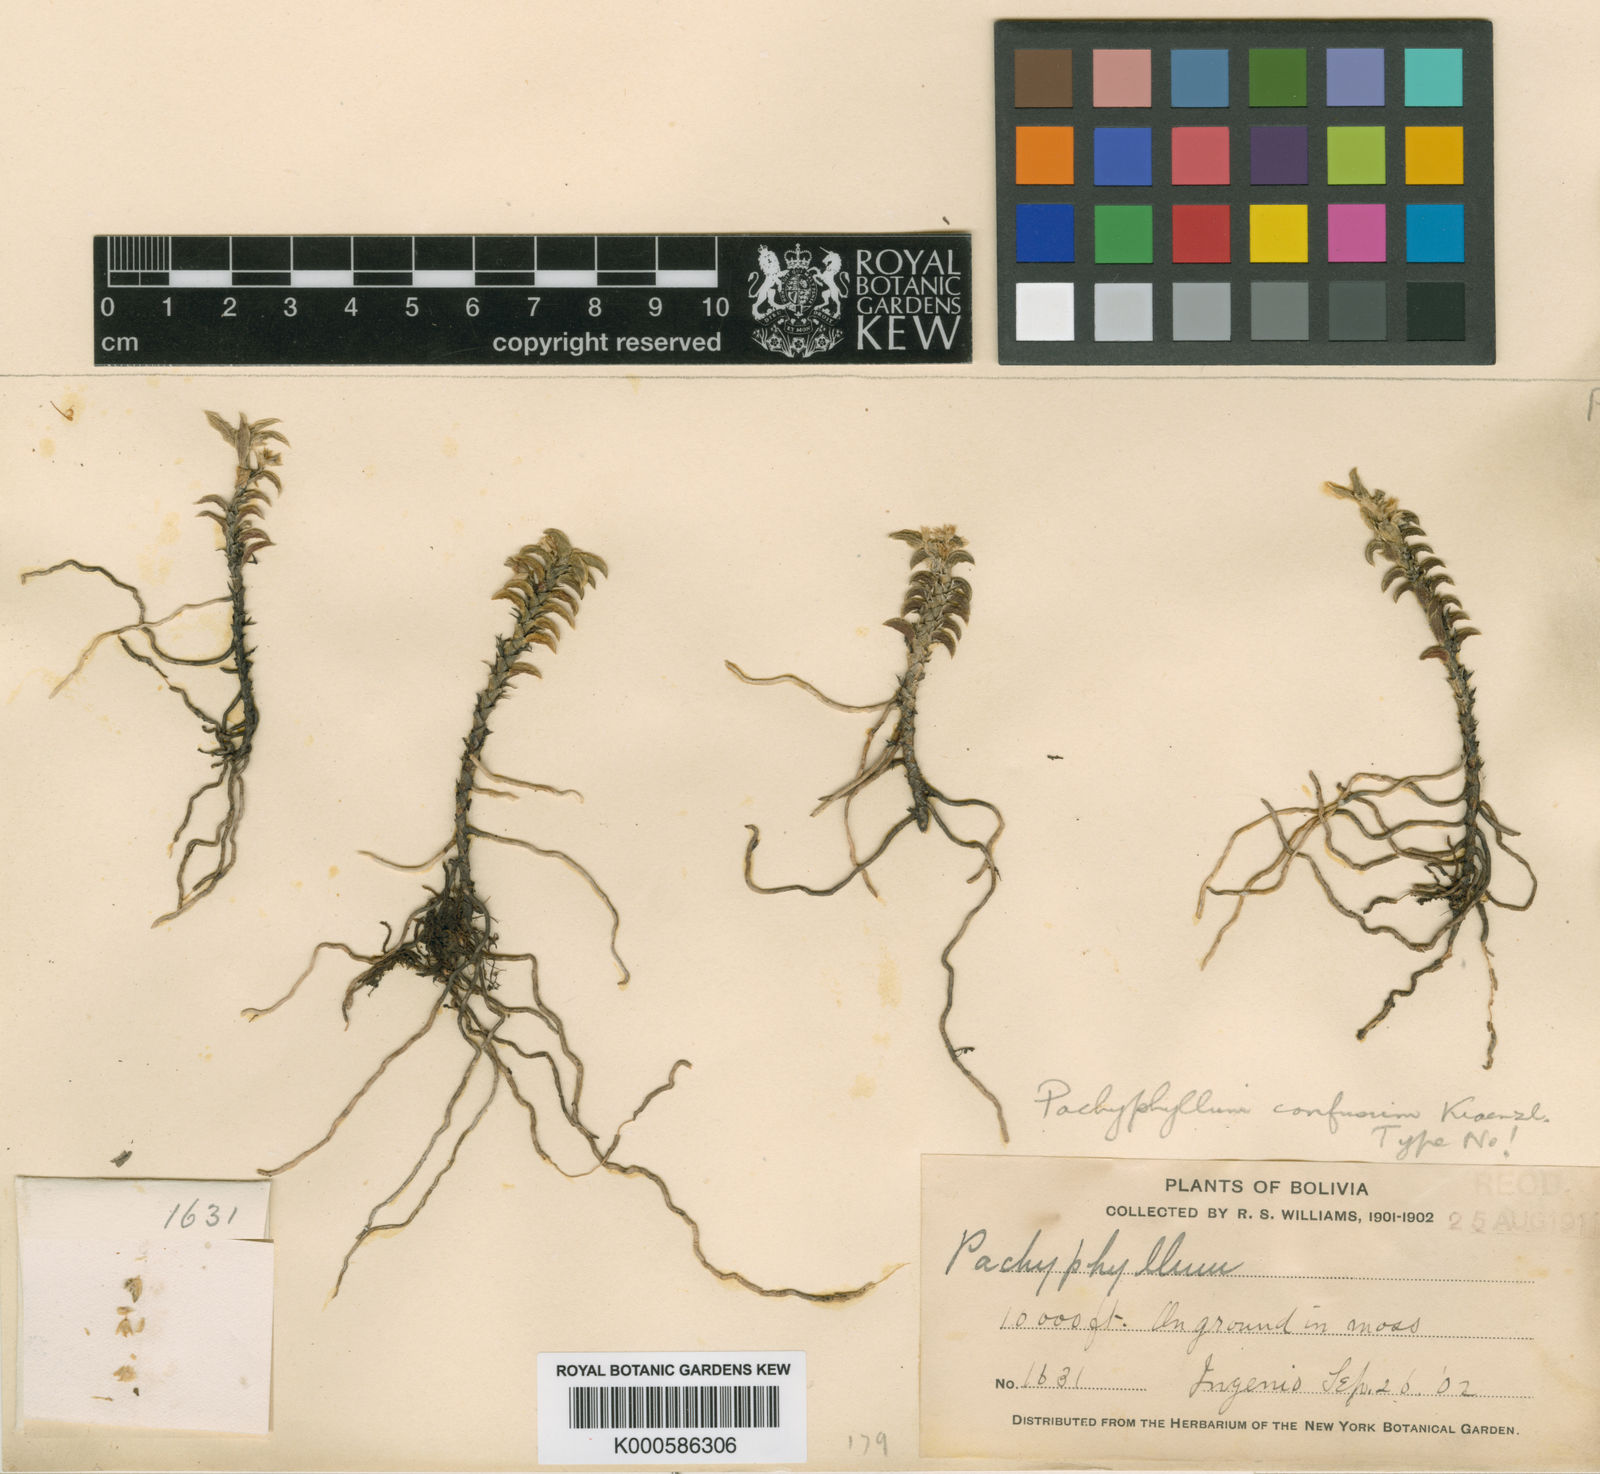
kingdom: Plantae
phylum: Tracheophyta
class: Liliopsida
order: Asparagales
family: Orchidaceae
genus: Fernandezia
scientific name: Fernandezia cyrtophylla
